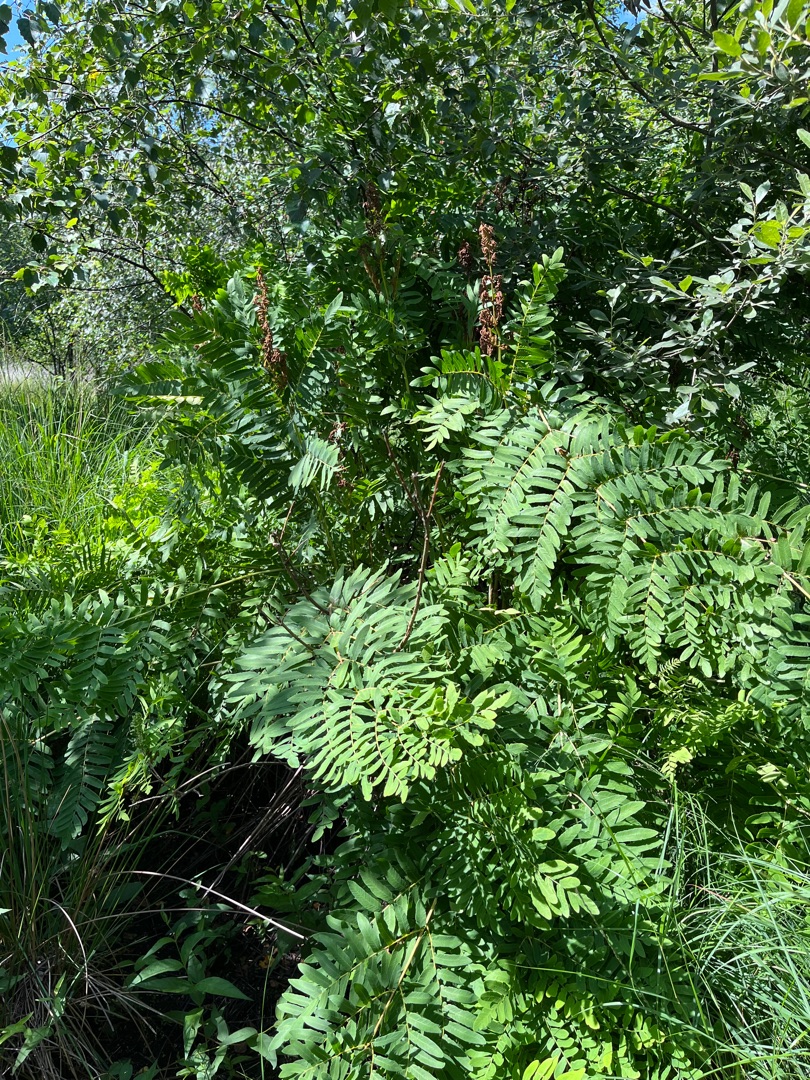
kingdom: Plantae
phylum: Tracheophyta
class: Polypodiopsida
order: Osmundales
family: Osmundaceae
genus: Osmunda
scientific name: Osmunda regalis
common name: Kongebregne
